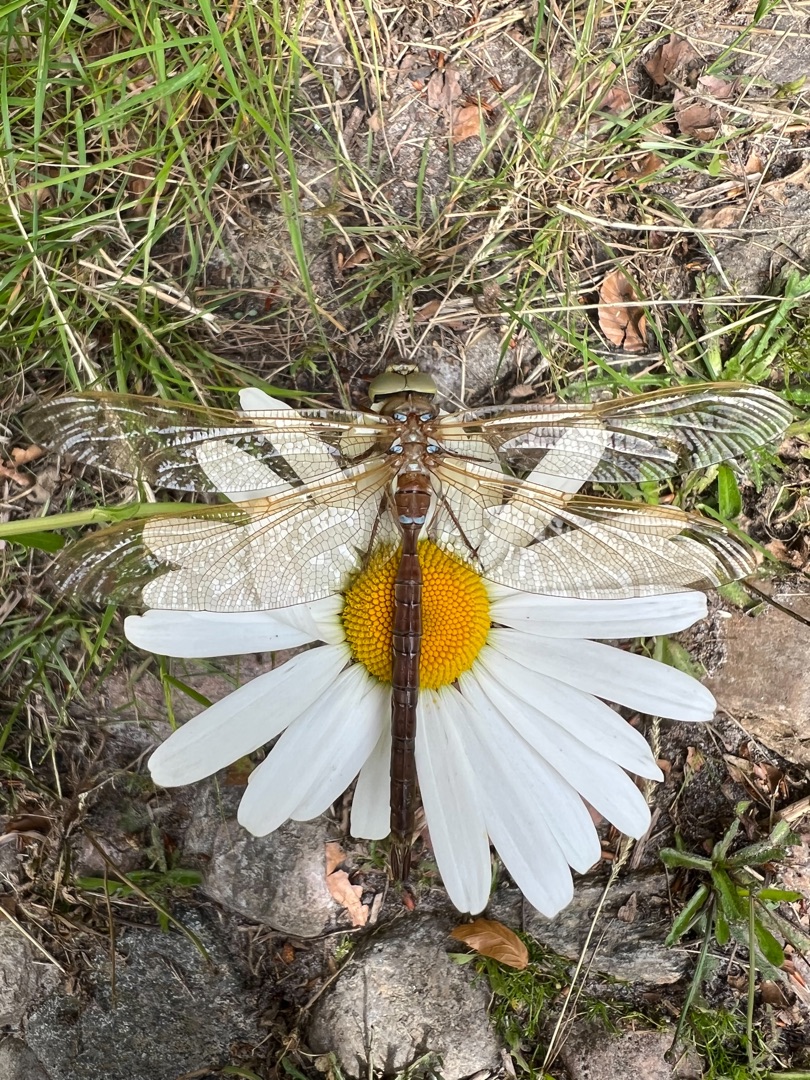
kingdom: Animalia
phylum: Arthropoda
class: Insecta
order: Odonata
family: Aeshnidae
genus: Aeshna
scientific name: Aeshna grandis
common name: Brun mosaikguldsmed
